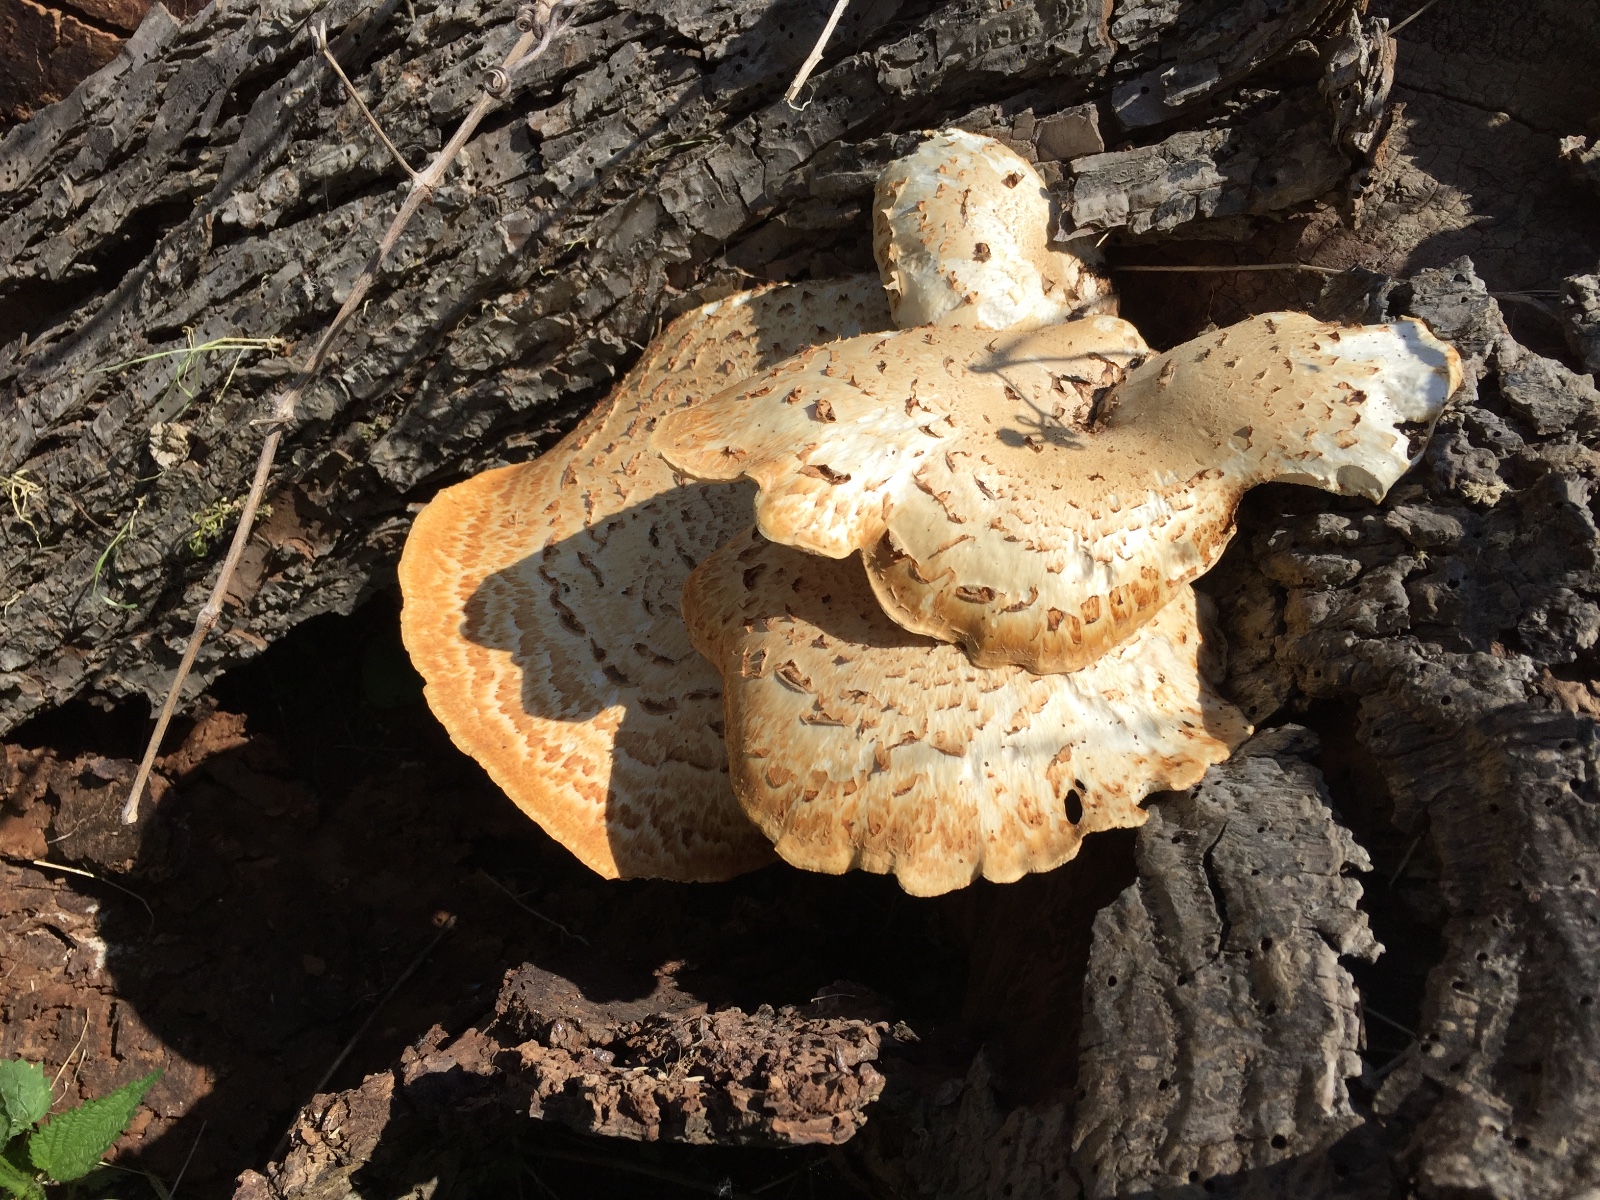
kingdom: Fungi
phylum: Basidiomycota
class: Agaricomycetes
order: Polyporales
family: Polyporaceae
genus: Cerioporus
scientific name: Cerioporus squamosus
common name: skællet stilkporesvamp
